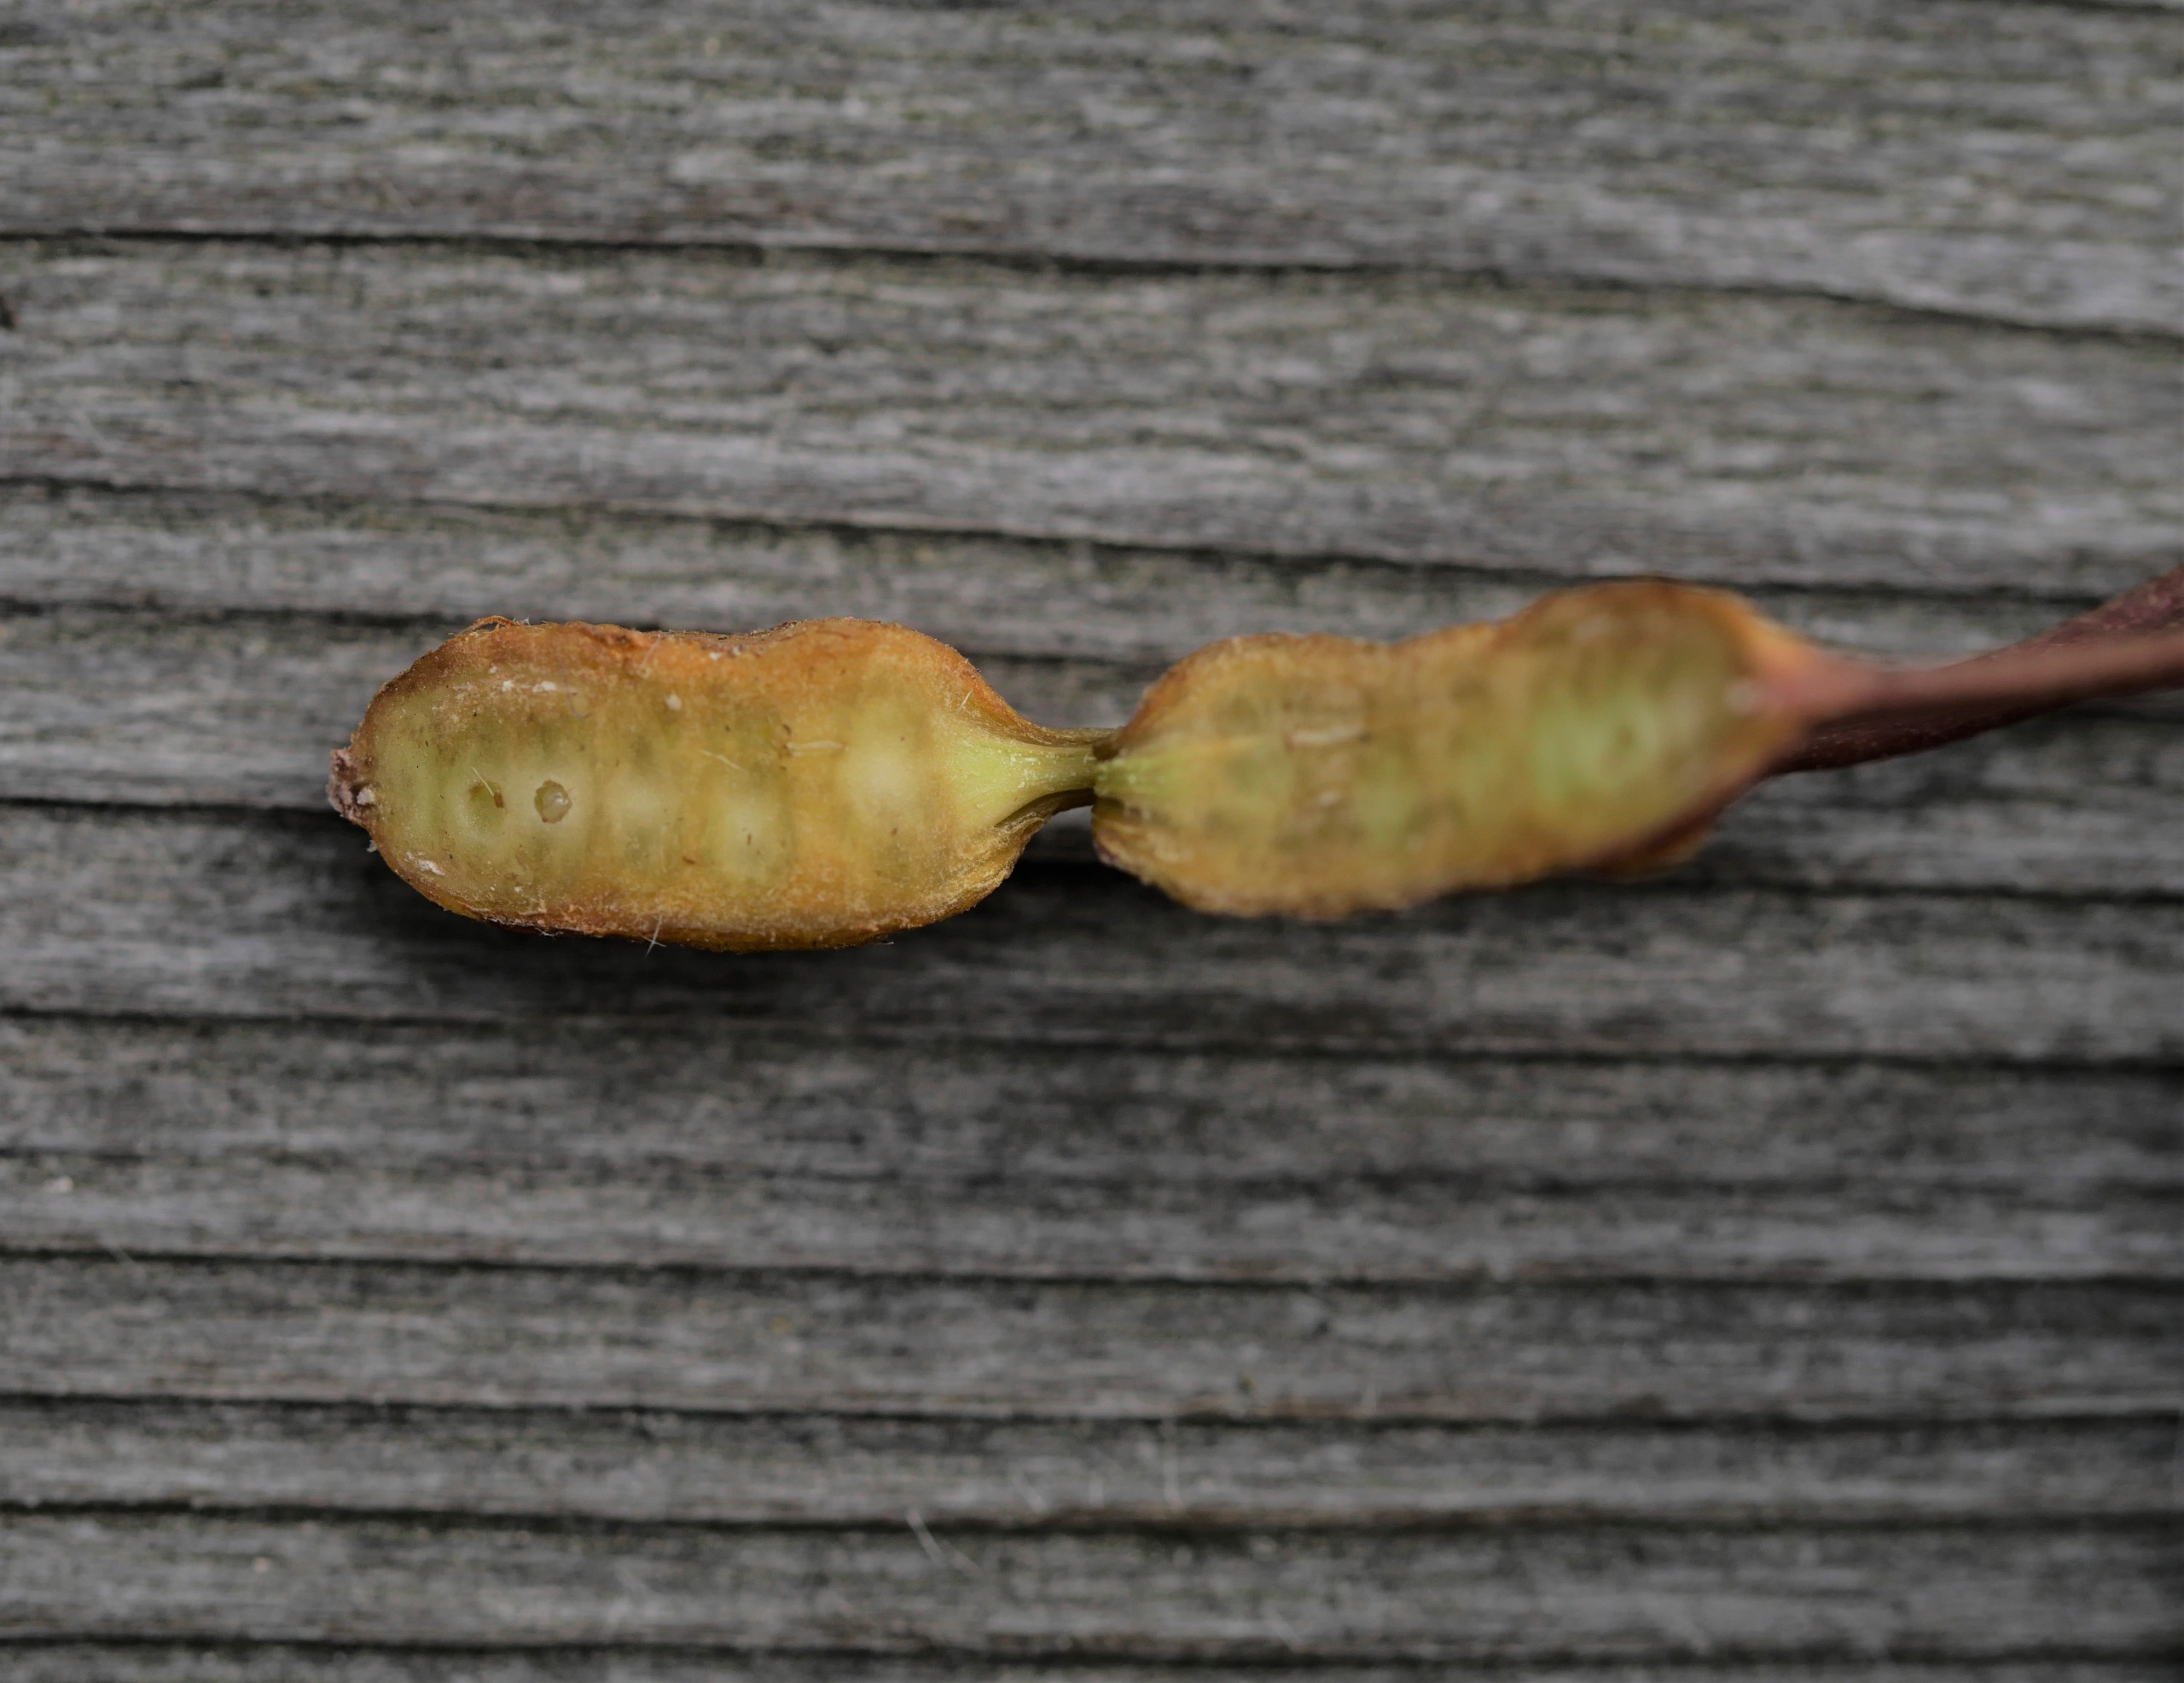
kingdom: Animalia
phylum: Arthropoda
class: Insecta
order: Hymenoptera
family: Cynipidae
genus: Xestophanes
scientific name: Xestophanes potentillae
